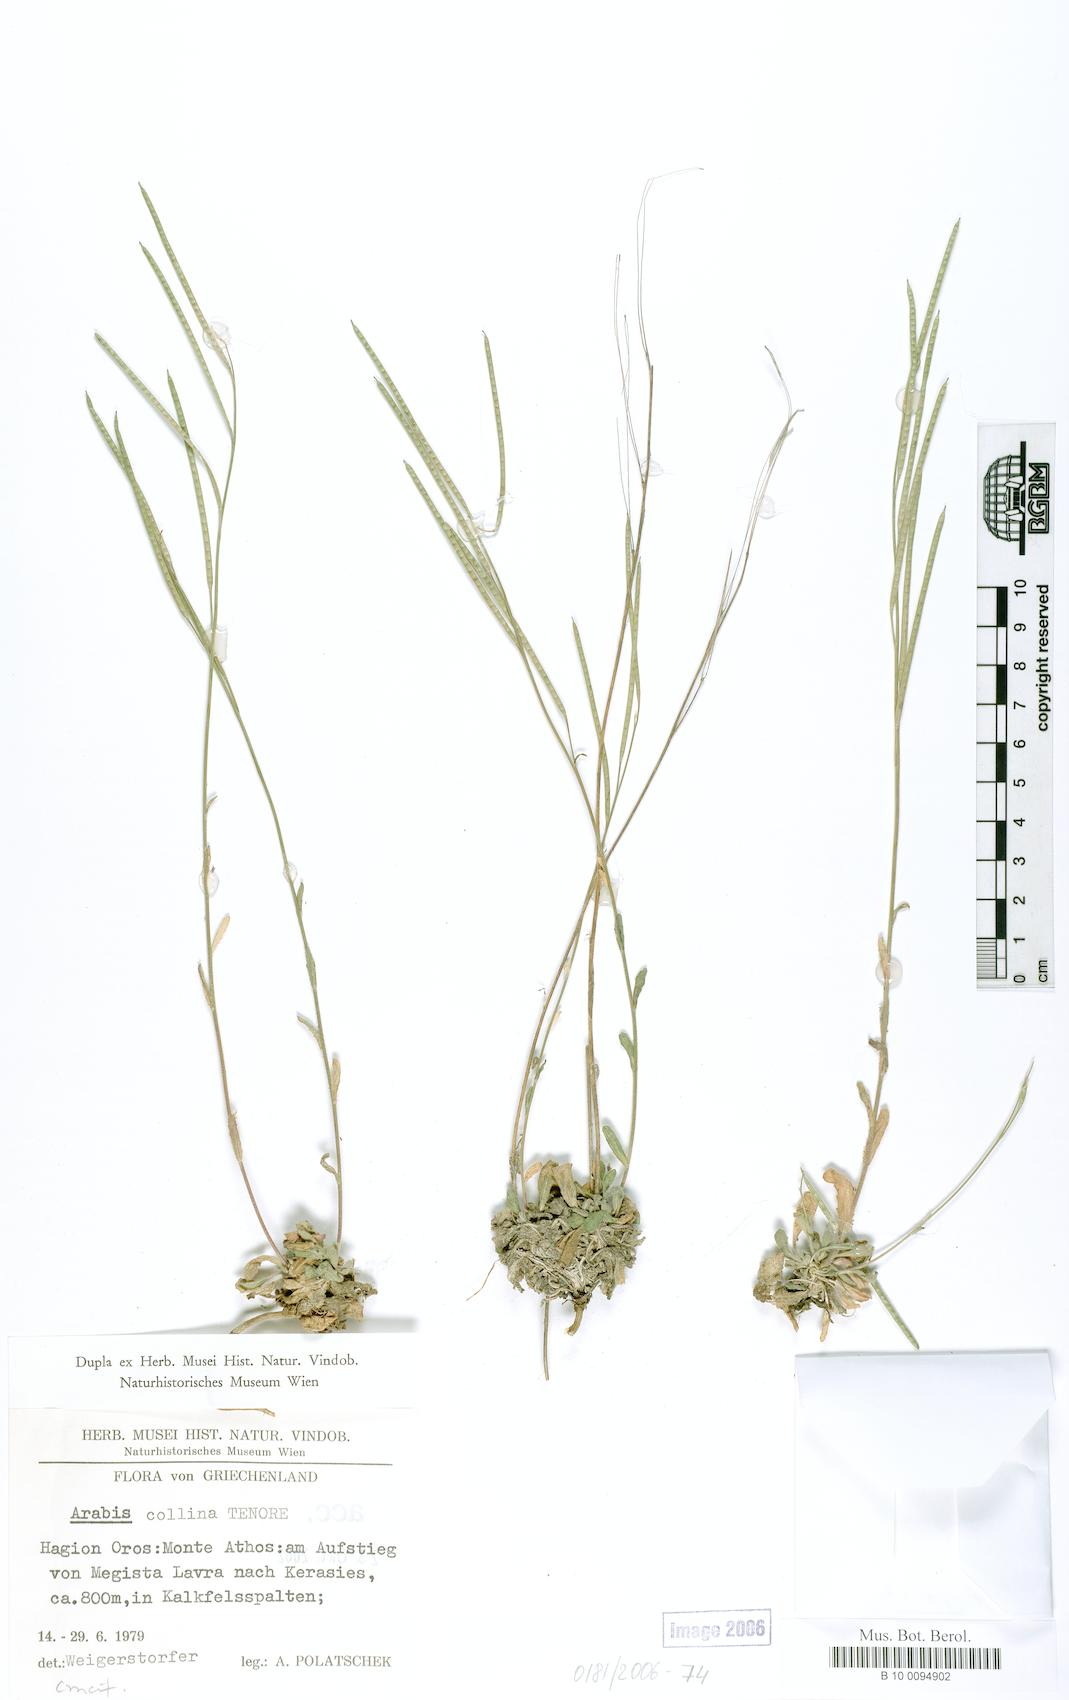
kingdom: Plantae
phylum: Tracheophyta
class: Magnoliopsida
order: Brassicales
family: Brassicaceae
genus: Arabis
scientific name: Arabis collina
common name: Rosy cress
